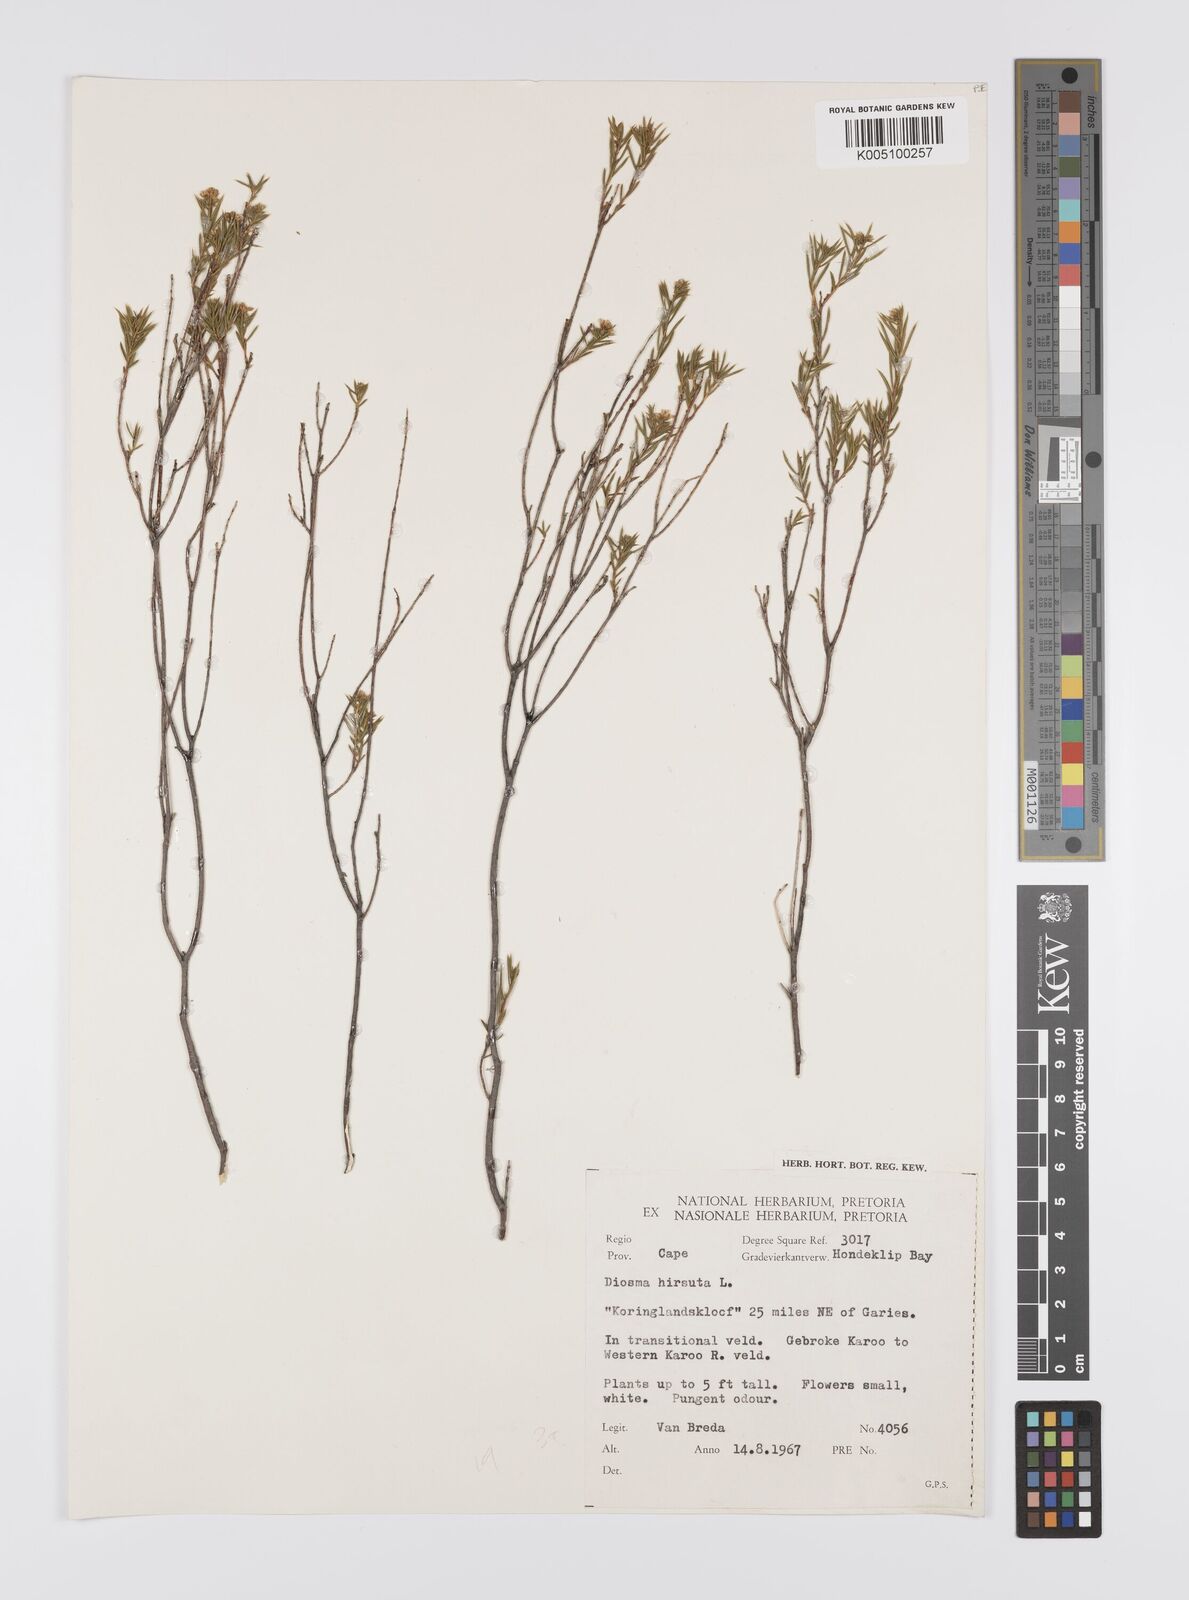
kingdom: Plantae
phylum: Tracheophyta
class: Magnoliopsida
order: Sapindales
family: Rutaceae
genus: Diosma
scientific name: Diosma hirsuta
